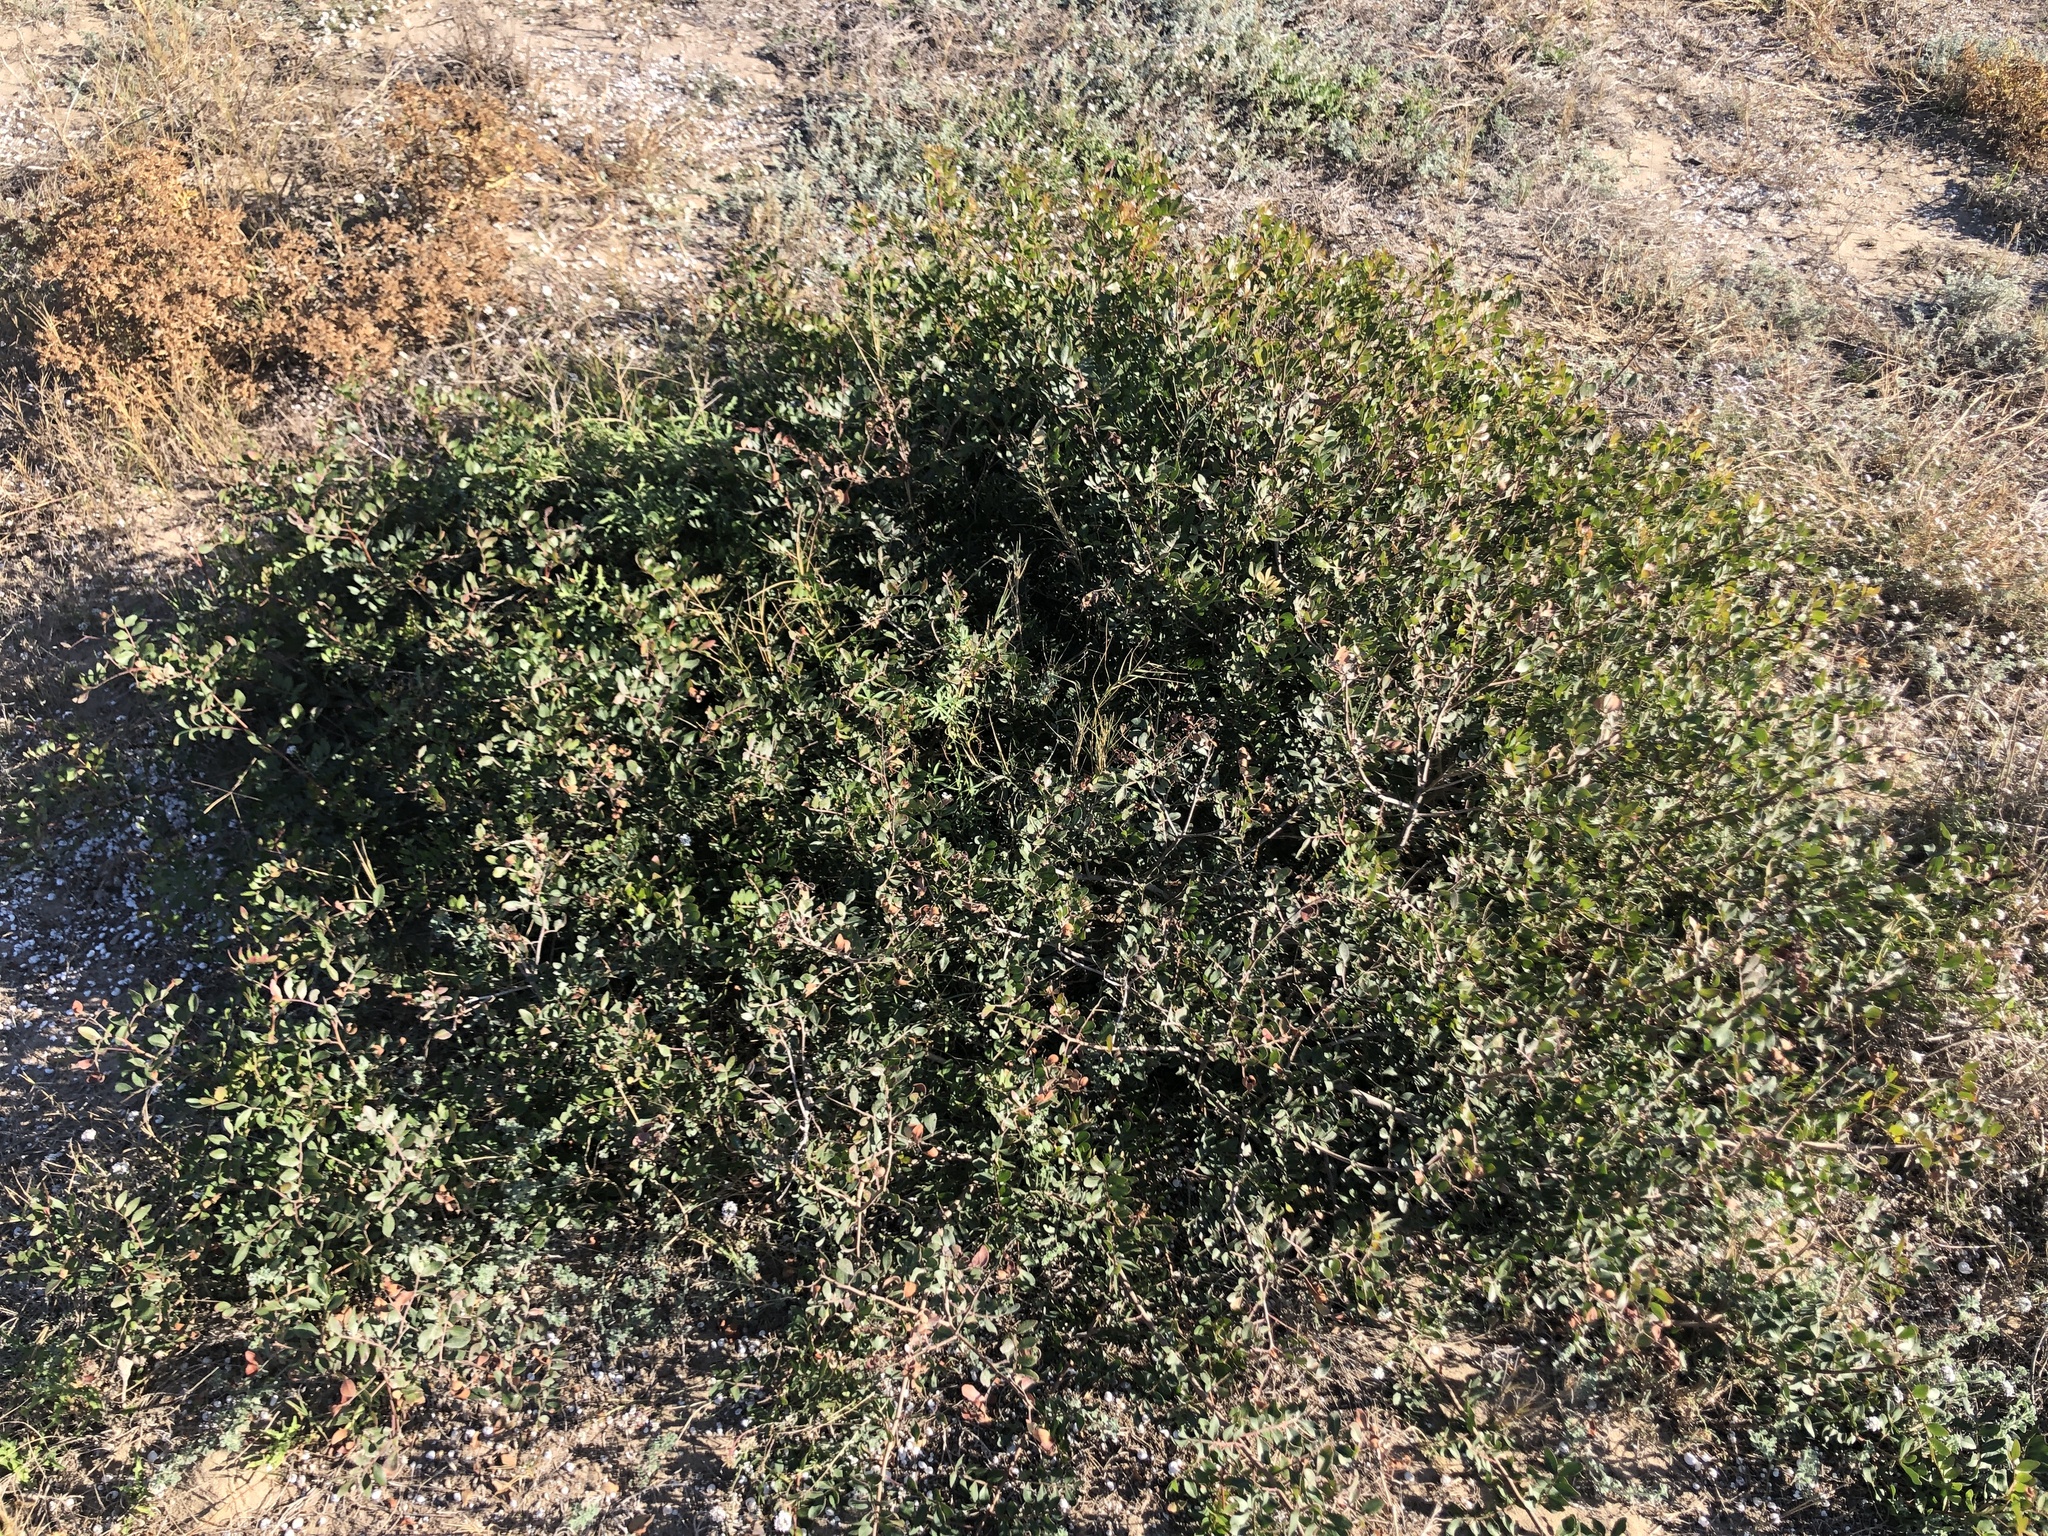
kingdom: Plantae
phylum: Tracheophyta
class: Magnoliopsida
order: Sapindales
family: Anacardiaceae
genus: Pistacia
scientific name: Pistacia lentiscus
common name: Lentisk
